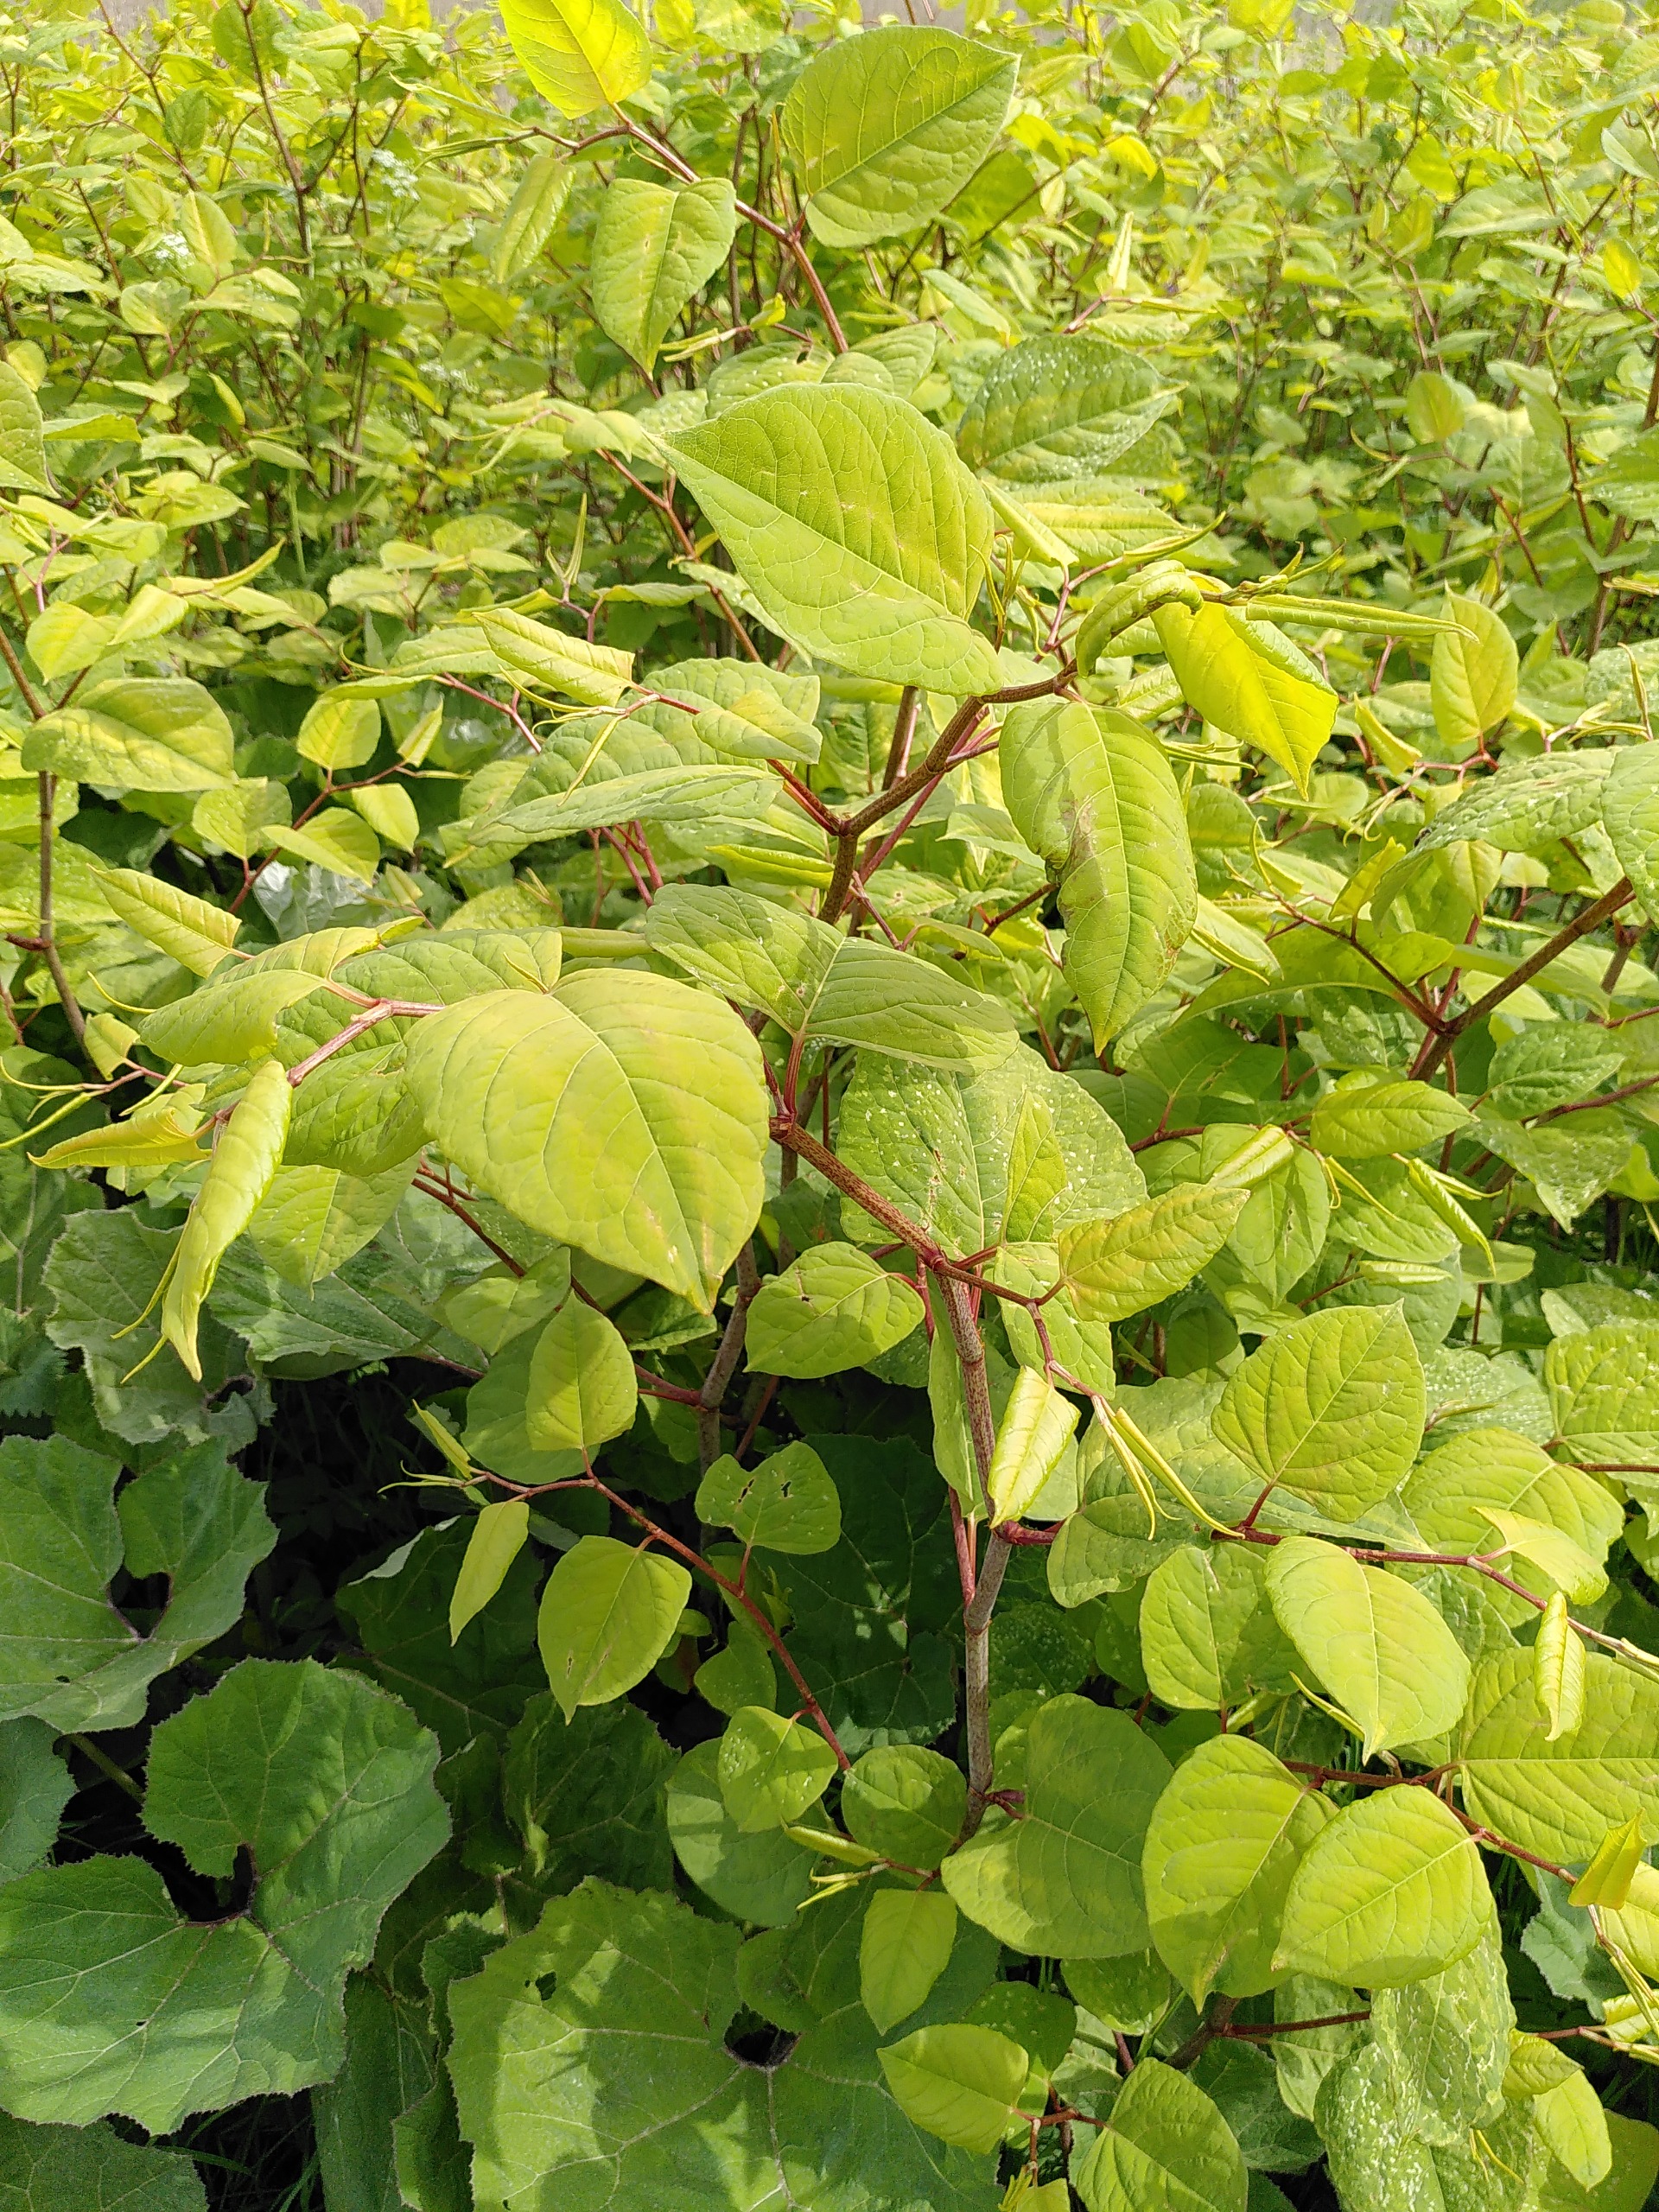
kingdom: Plantae
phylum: Tracheophyta
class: Magnoliopsida
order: Caryophyllales
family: Polygonaceae
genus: Reynoutria
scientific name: Reynoutria japonica
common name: Japan-pileurt
